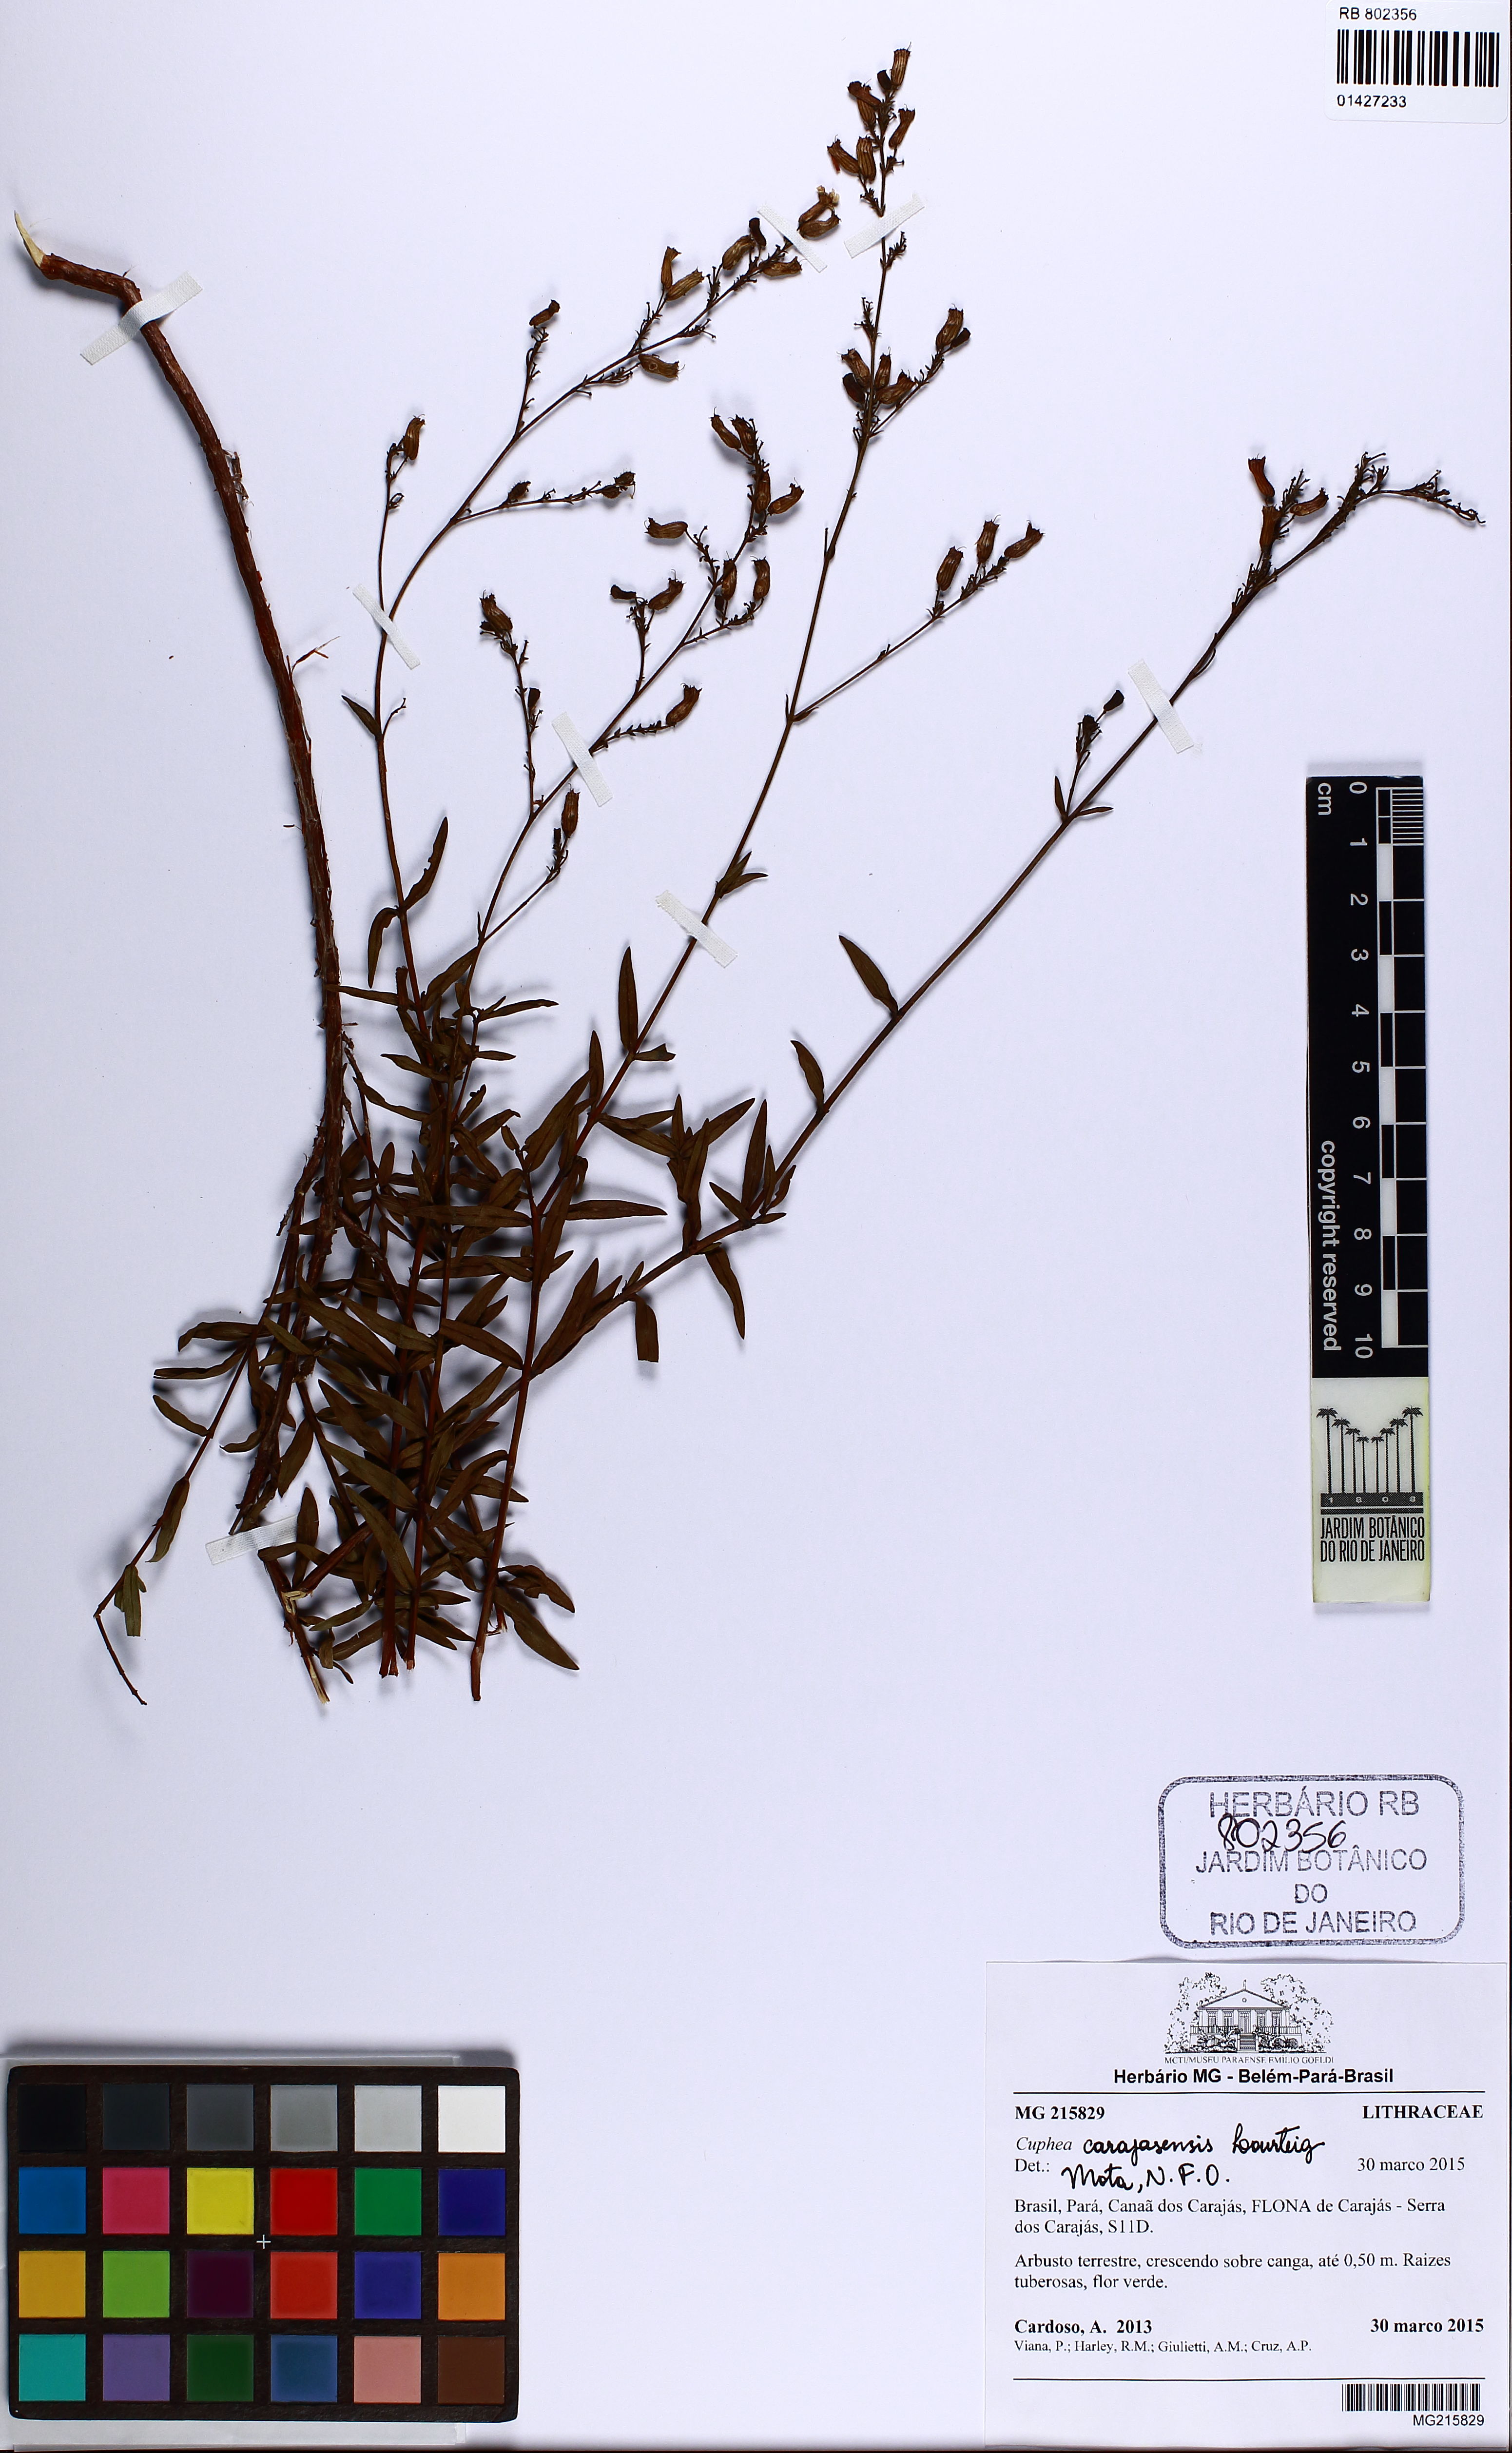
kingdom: Plantae
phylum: Tracheophyta
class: Magnoliopsida
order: Myrtales
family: Lythraceae
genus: Cuphea
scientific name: Cuphea carajasensis
